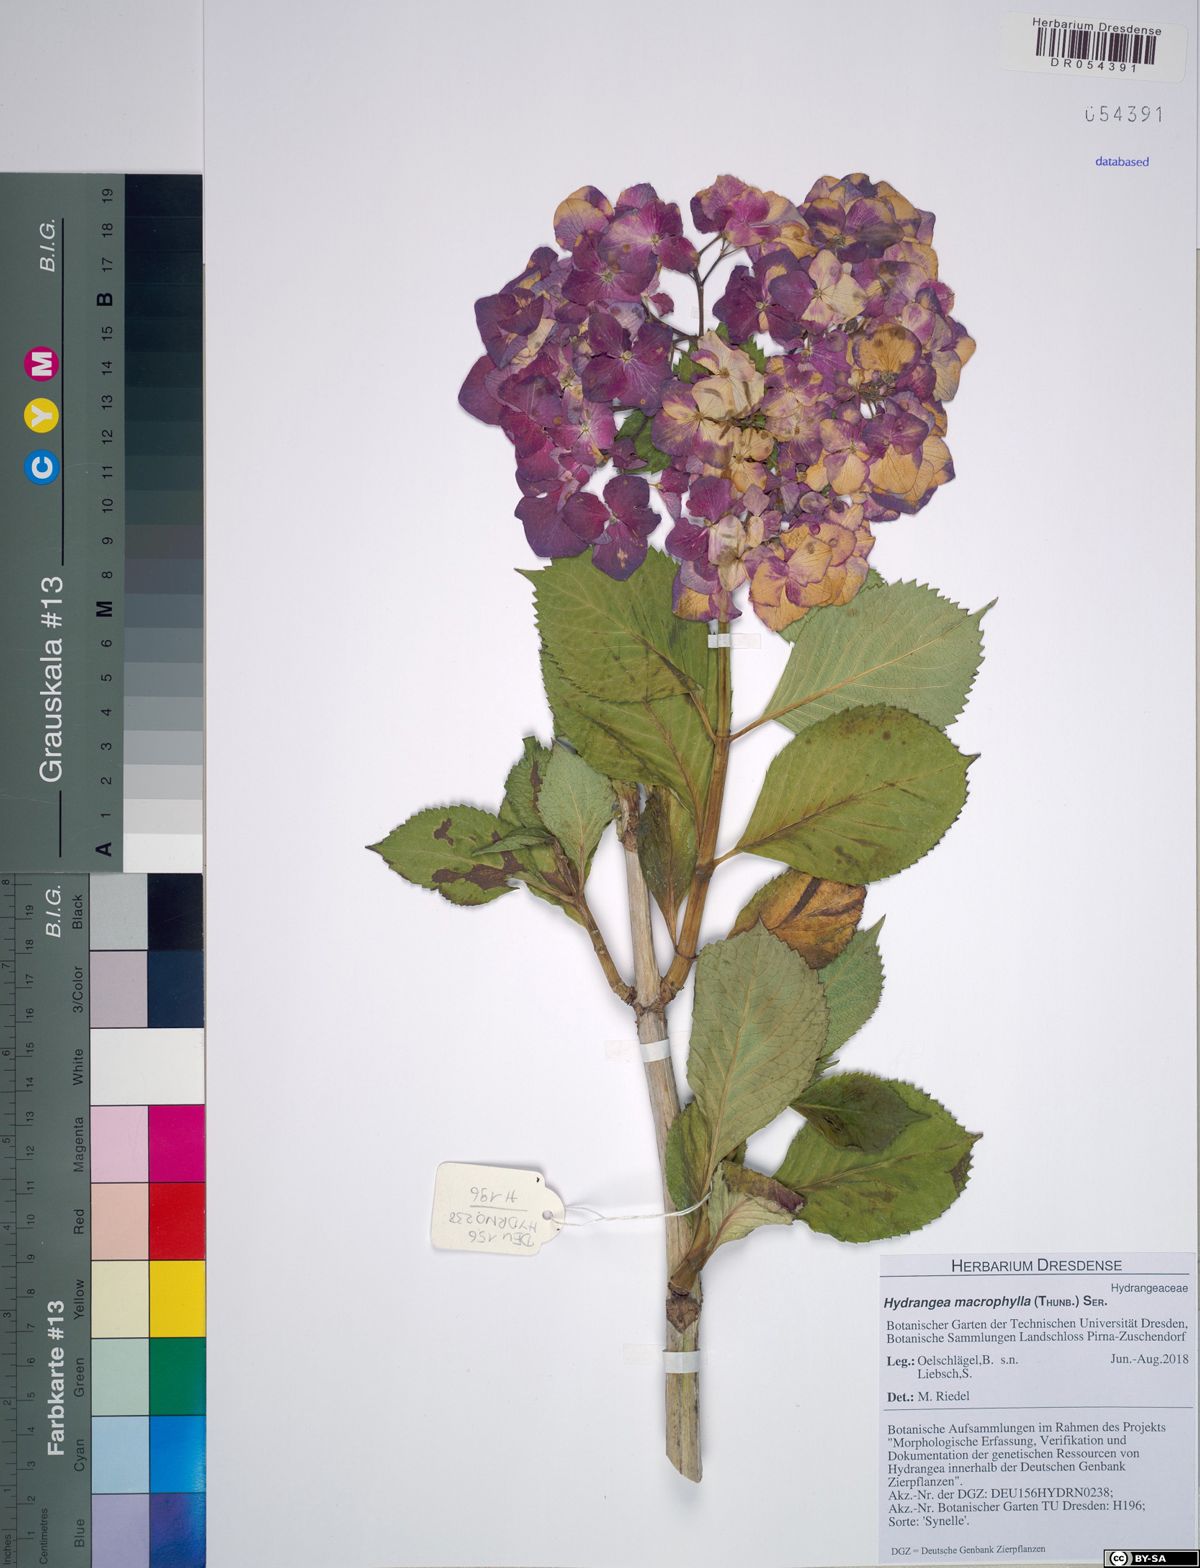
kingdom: Plantae
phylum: Tracheophyta
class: Magnoliopsida
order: Cornales
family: Hydrangeaceae
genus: Hydrangea
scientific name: Hydrangea macrophylla
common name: Hydrangea
